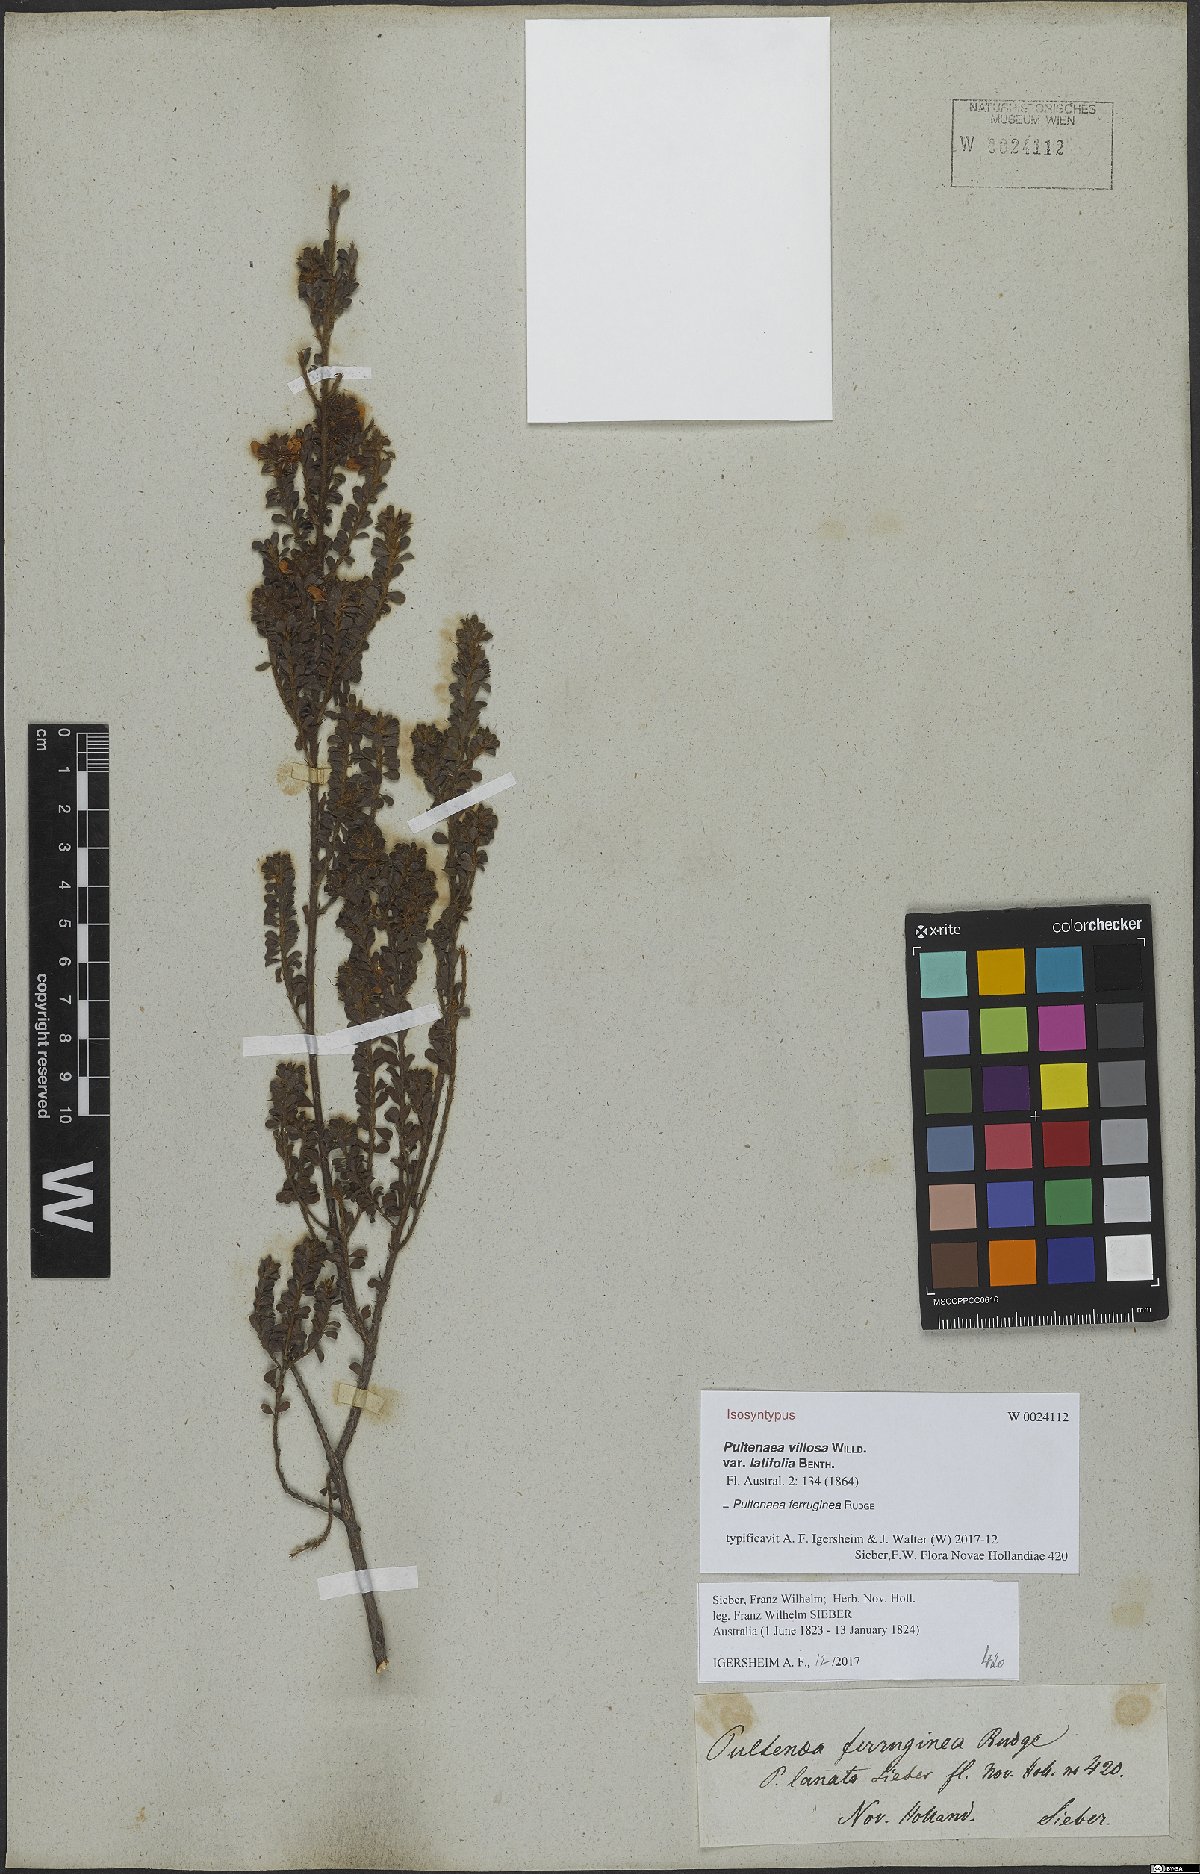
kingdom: Plantae
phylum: Tracheophyta
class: Magnoliopsida
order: Fabales
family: Fabaceae
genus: Pultenaea
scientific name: Pultenaea ferruginea
